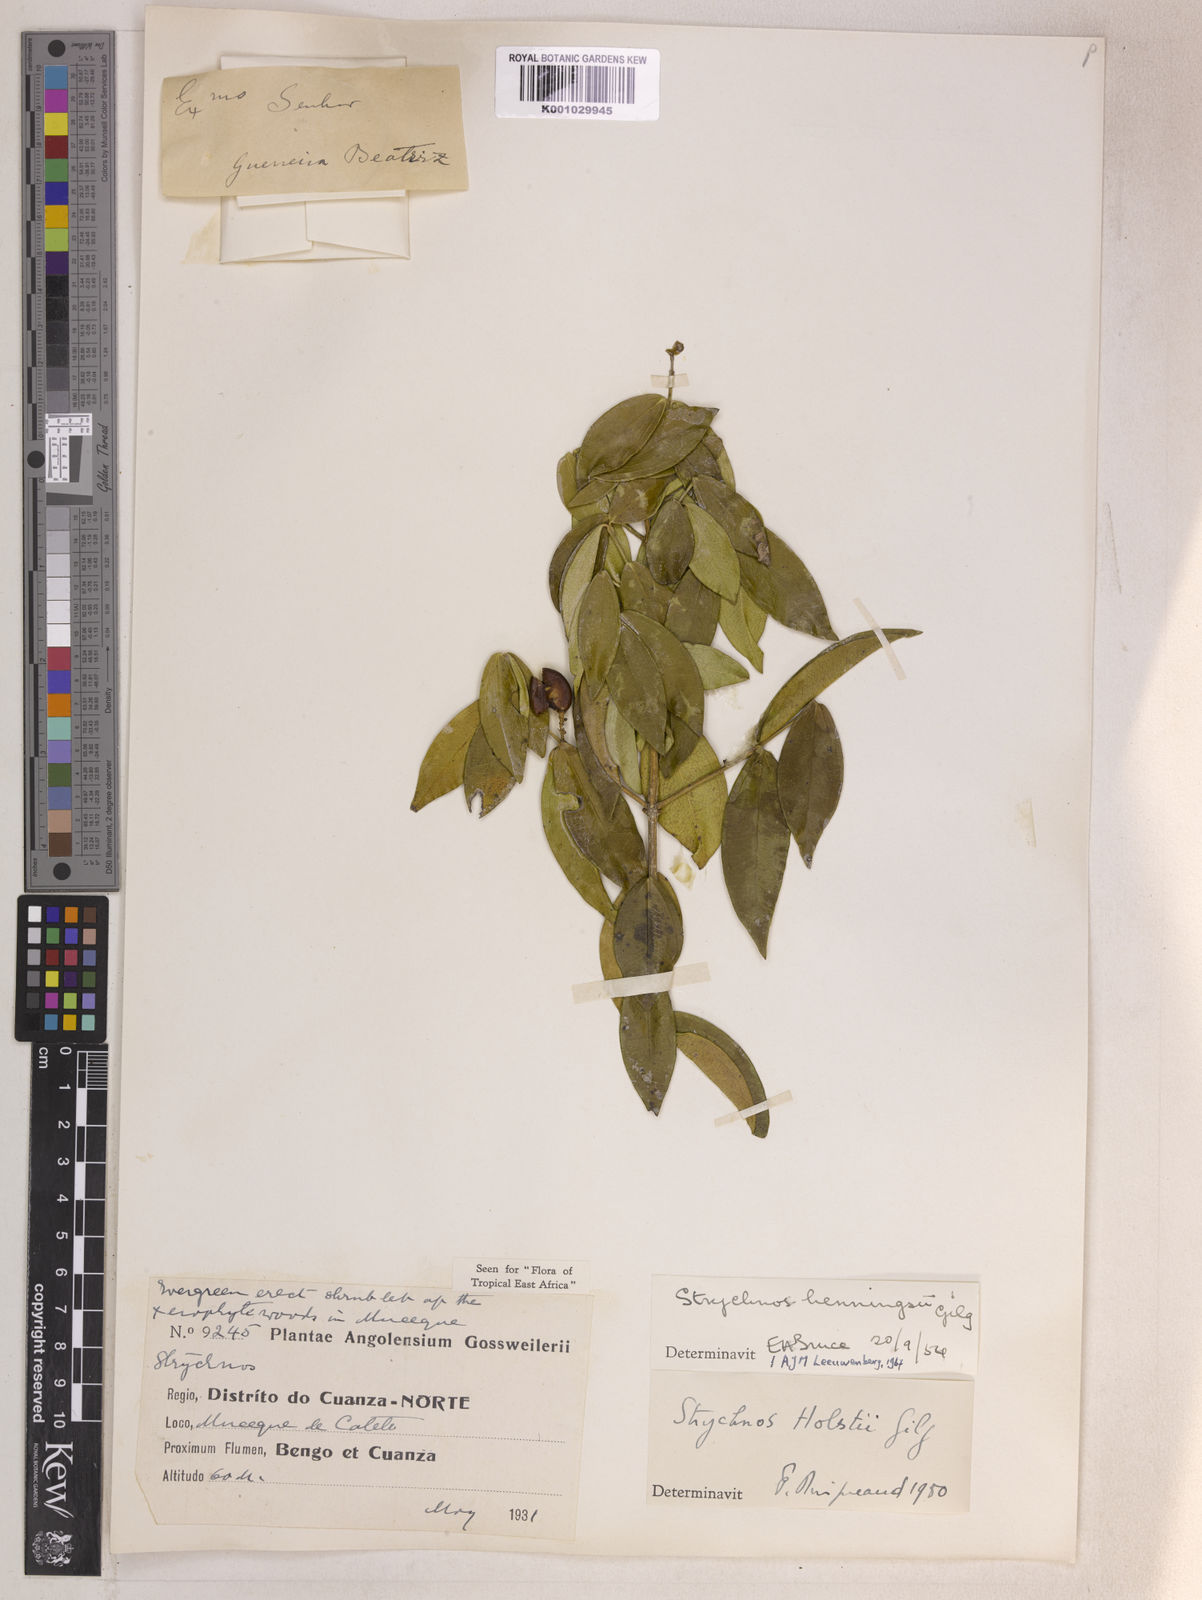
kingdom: Plantae
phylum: Tracheophyta
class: Magnoliopsida
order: Gentianales
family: Loganiaceae
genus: Strychnos
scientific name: Strychnos henningsii
